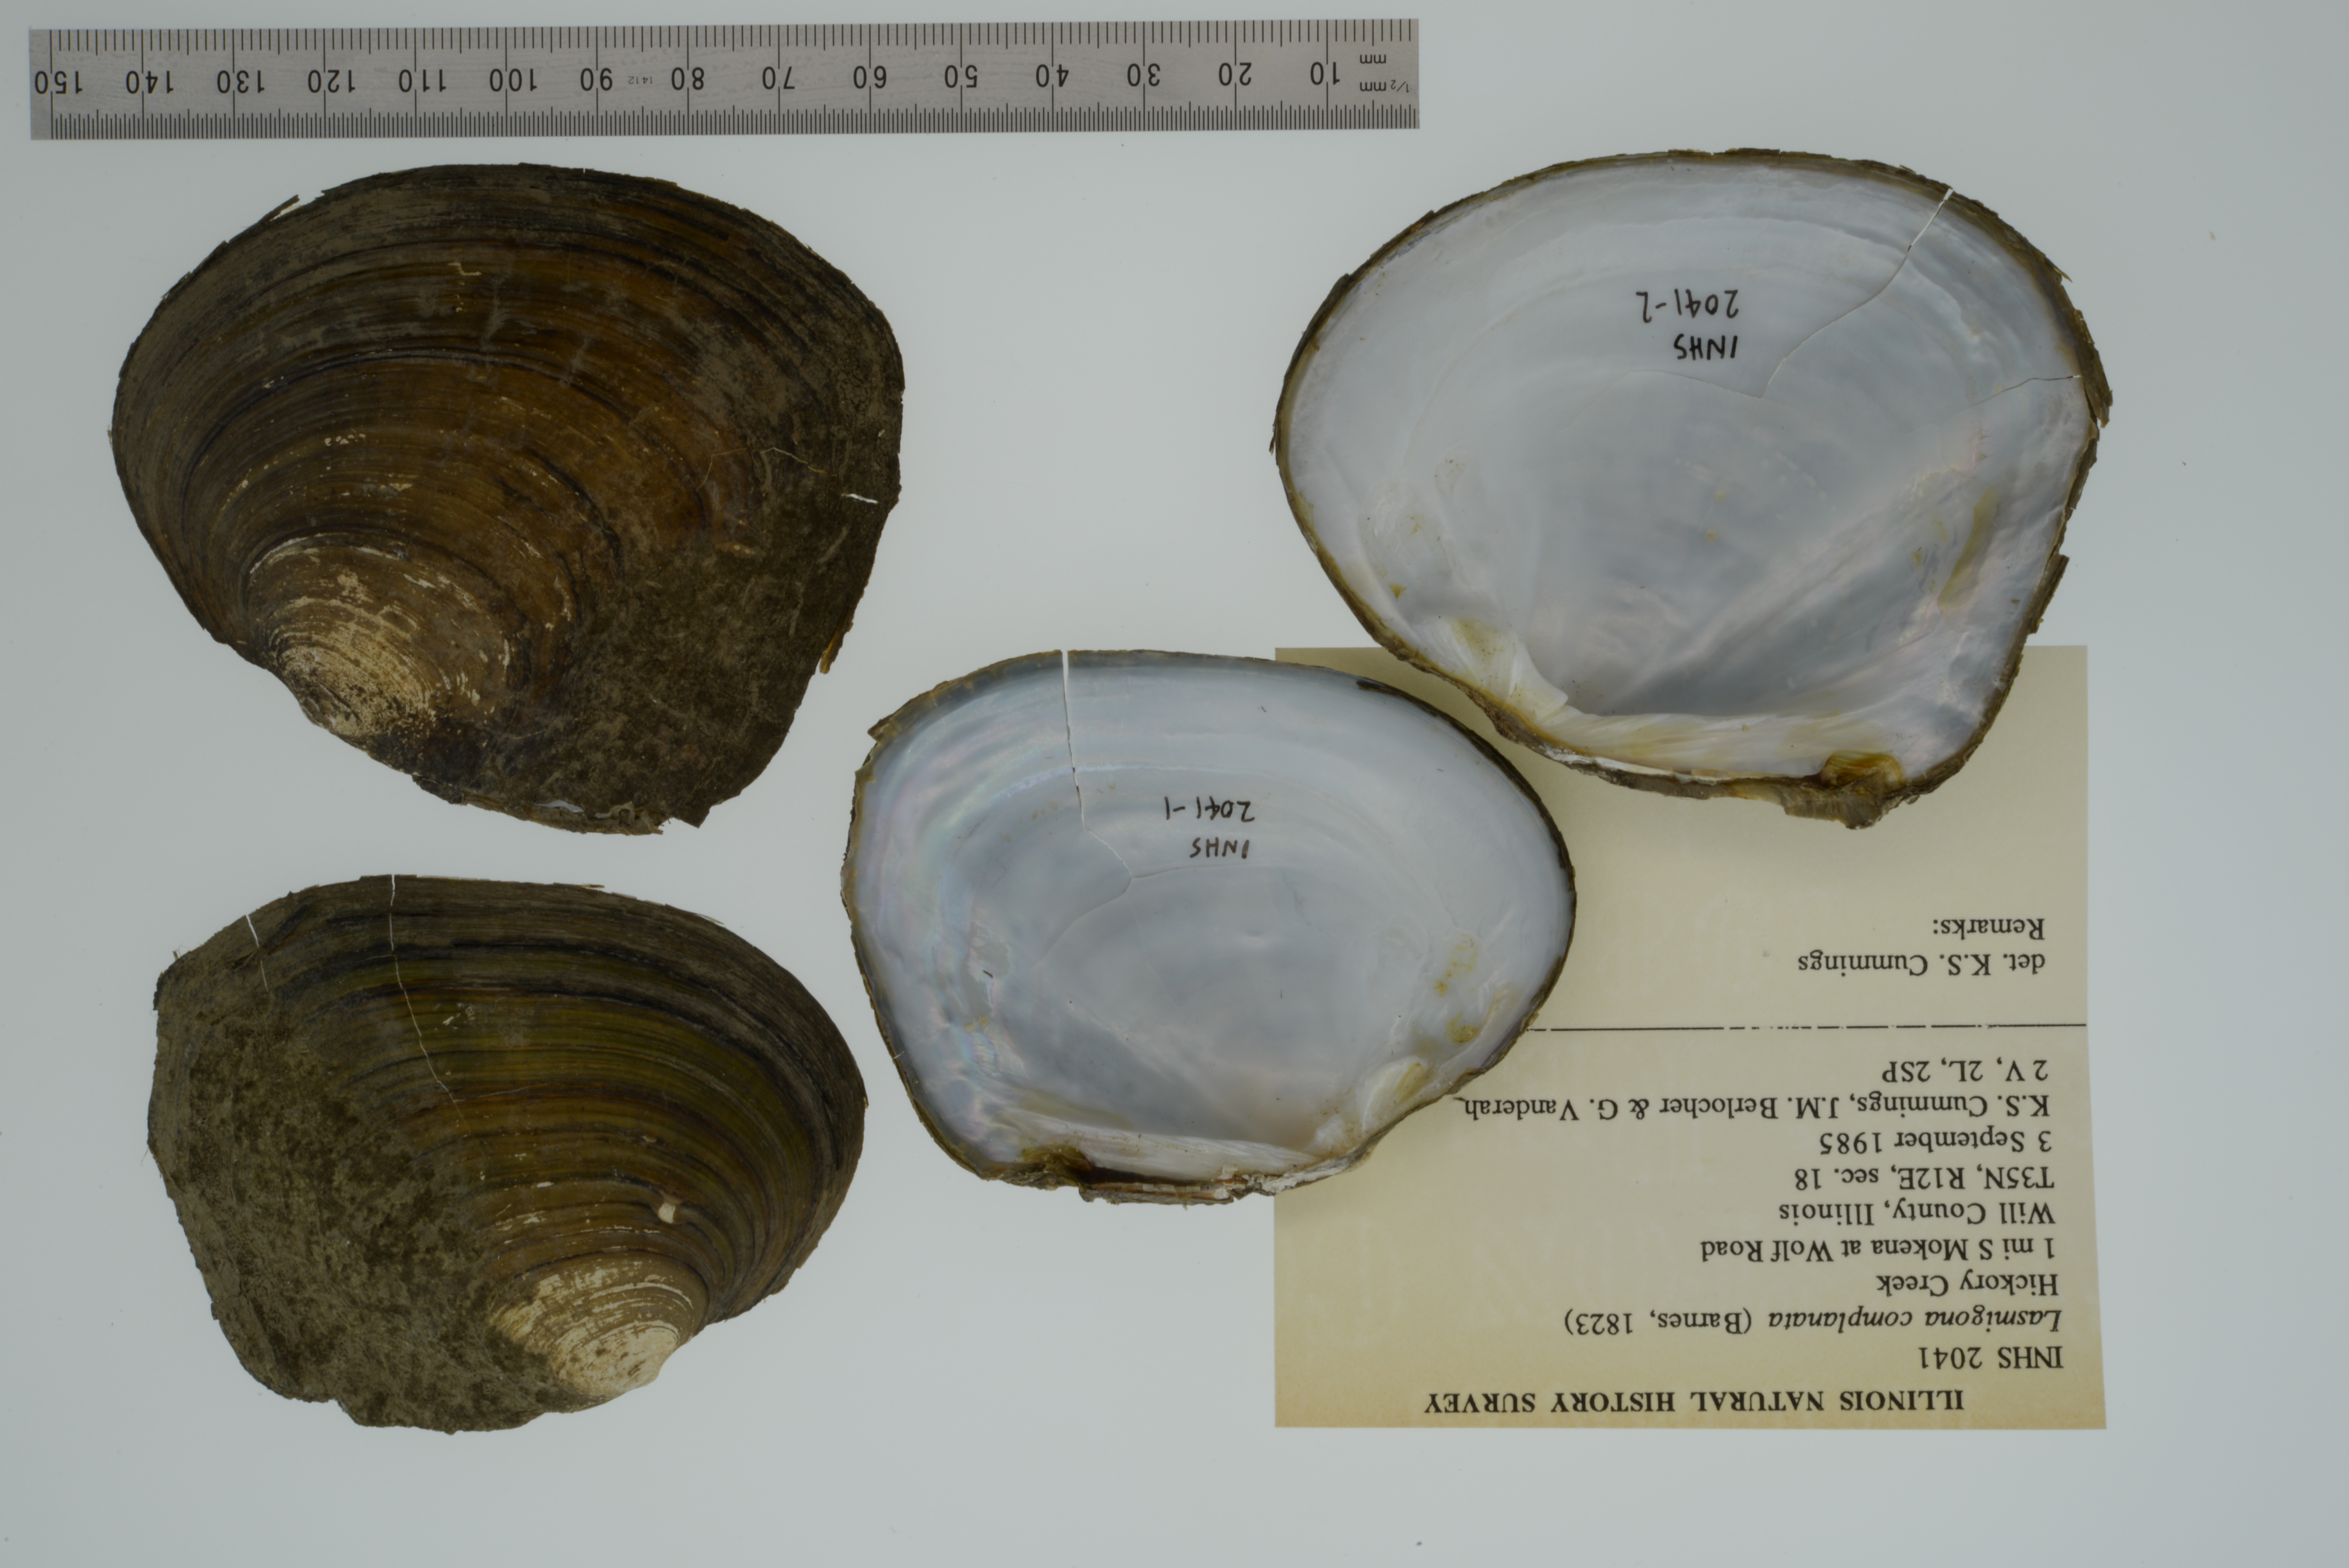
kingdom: Animalia
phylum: Mollusca
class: Bivalvia
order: Unionida
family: Unionidae
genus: Lasmigona
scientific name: Lasmigona complanata
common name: White heelsplitter
